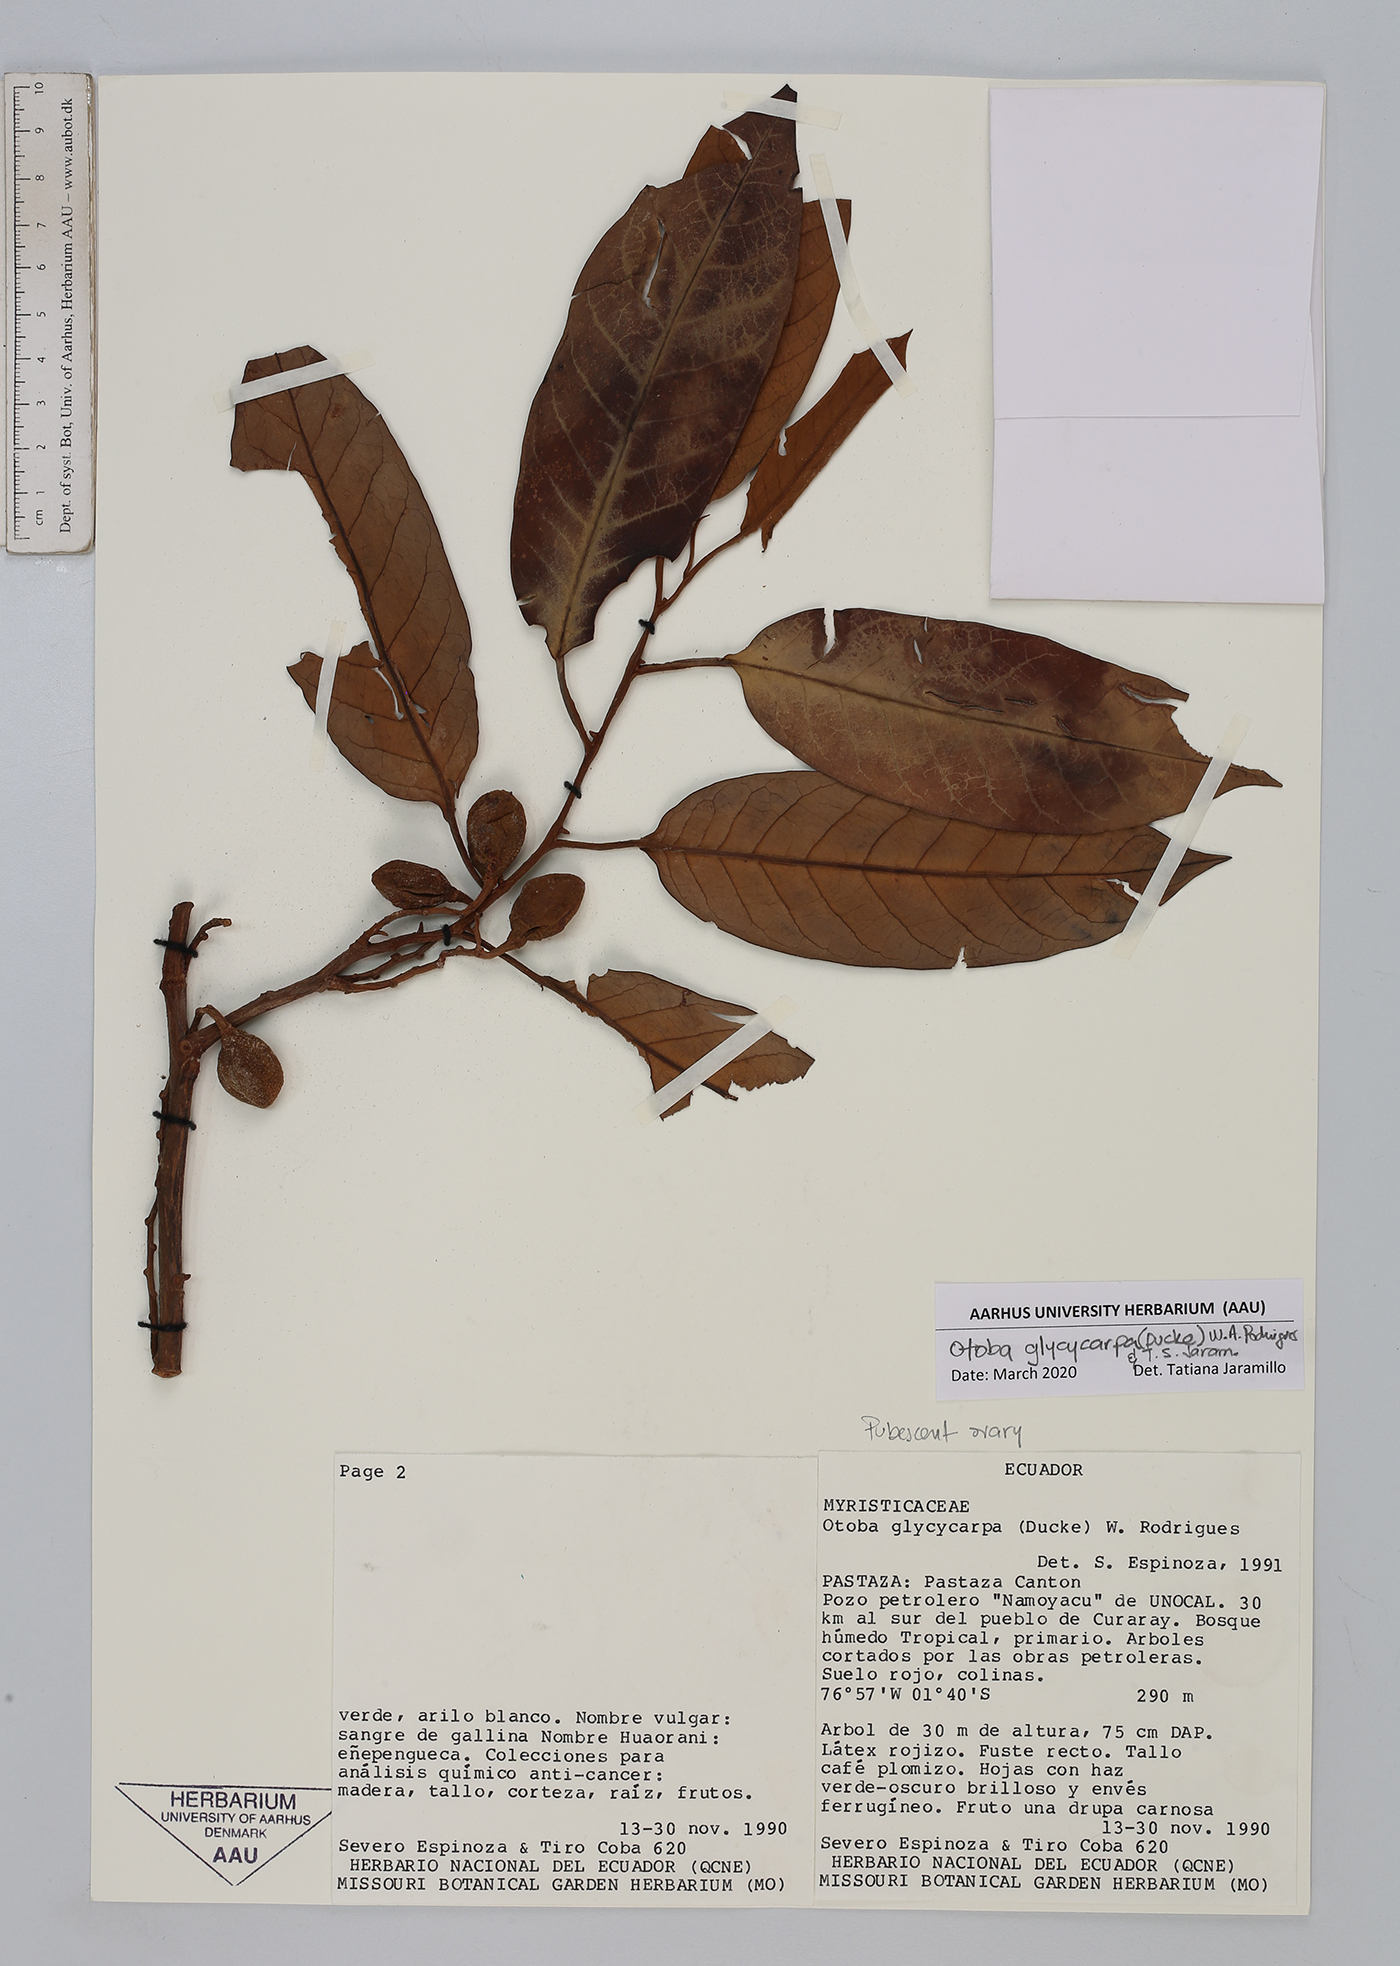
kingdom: Plantae
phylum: Tracheophyta
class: Magnoliopsida
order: Magnoliales
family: Myristicaceae
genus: Otoba
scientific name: Otoba glycycarpa
